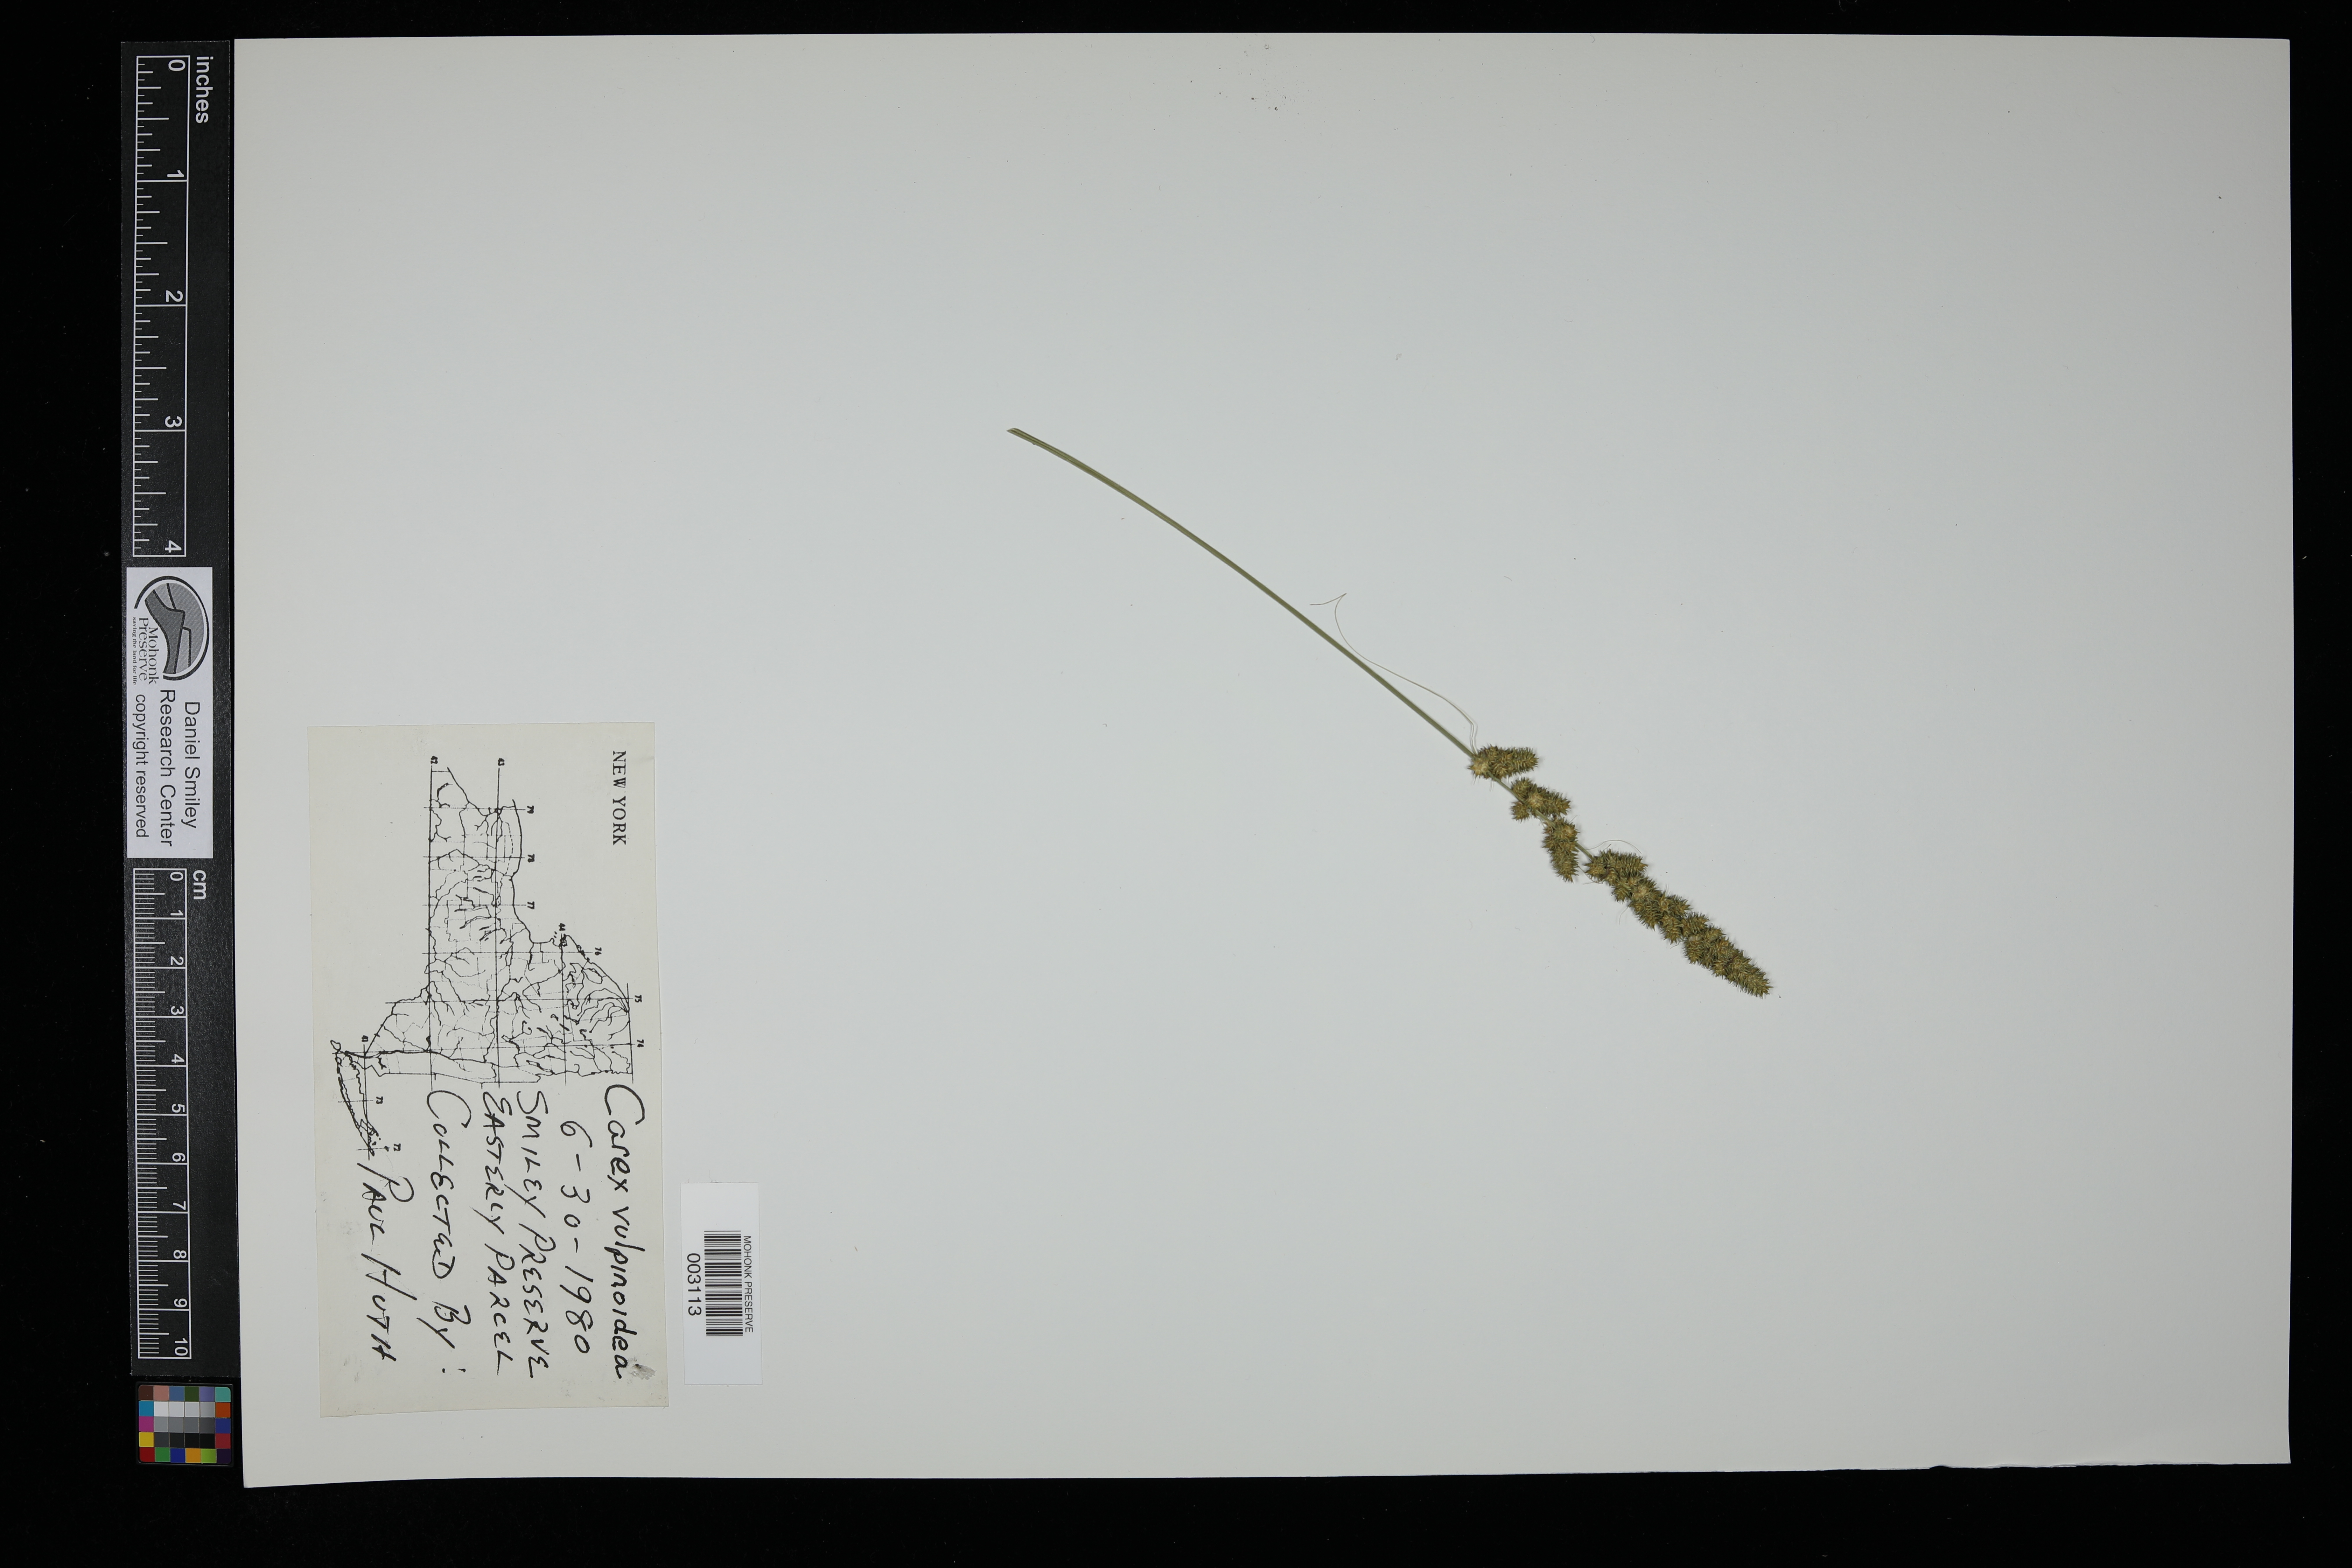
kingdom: Plantae
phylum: Tracheophyta
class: Liliopsida
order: Poales
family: Cyperaceae
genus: Carex
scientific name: Carex vulpinoidea
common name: American fox-sedge
